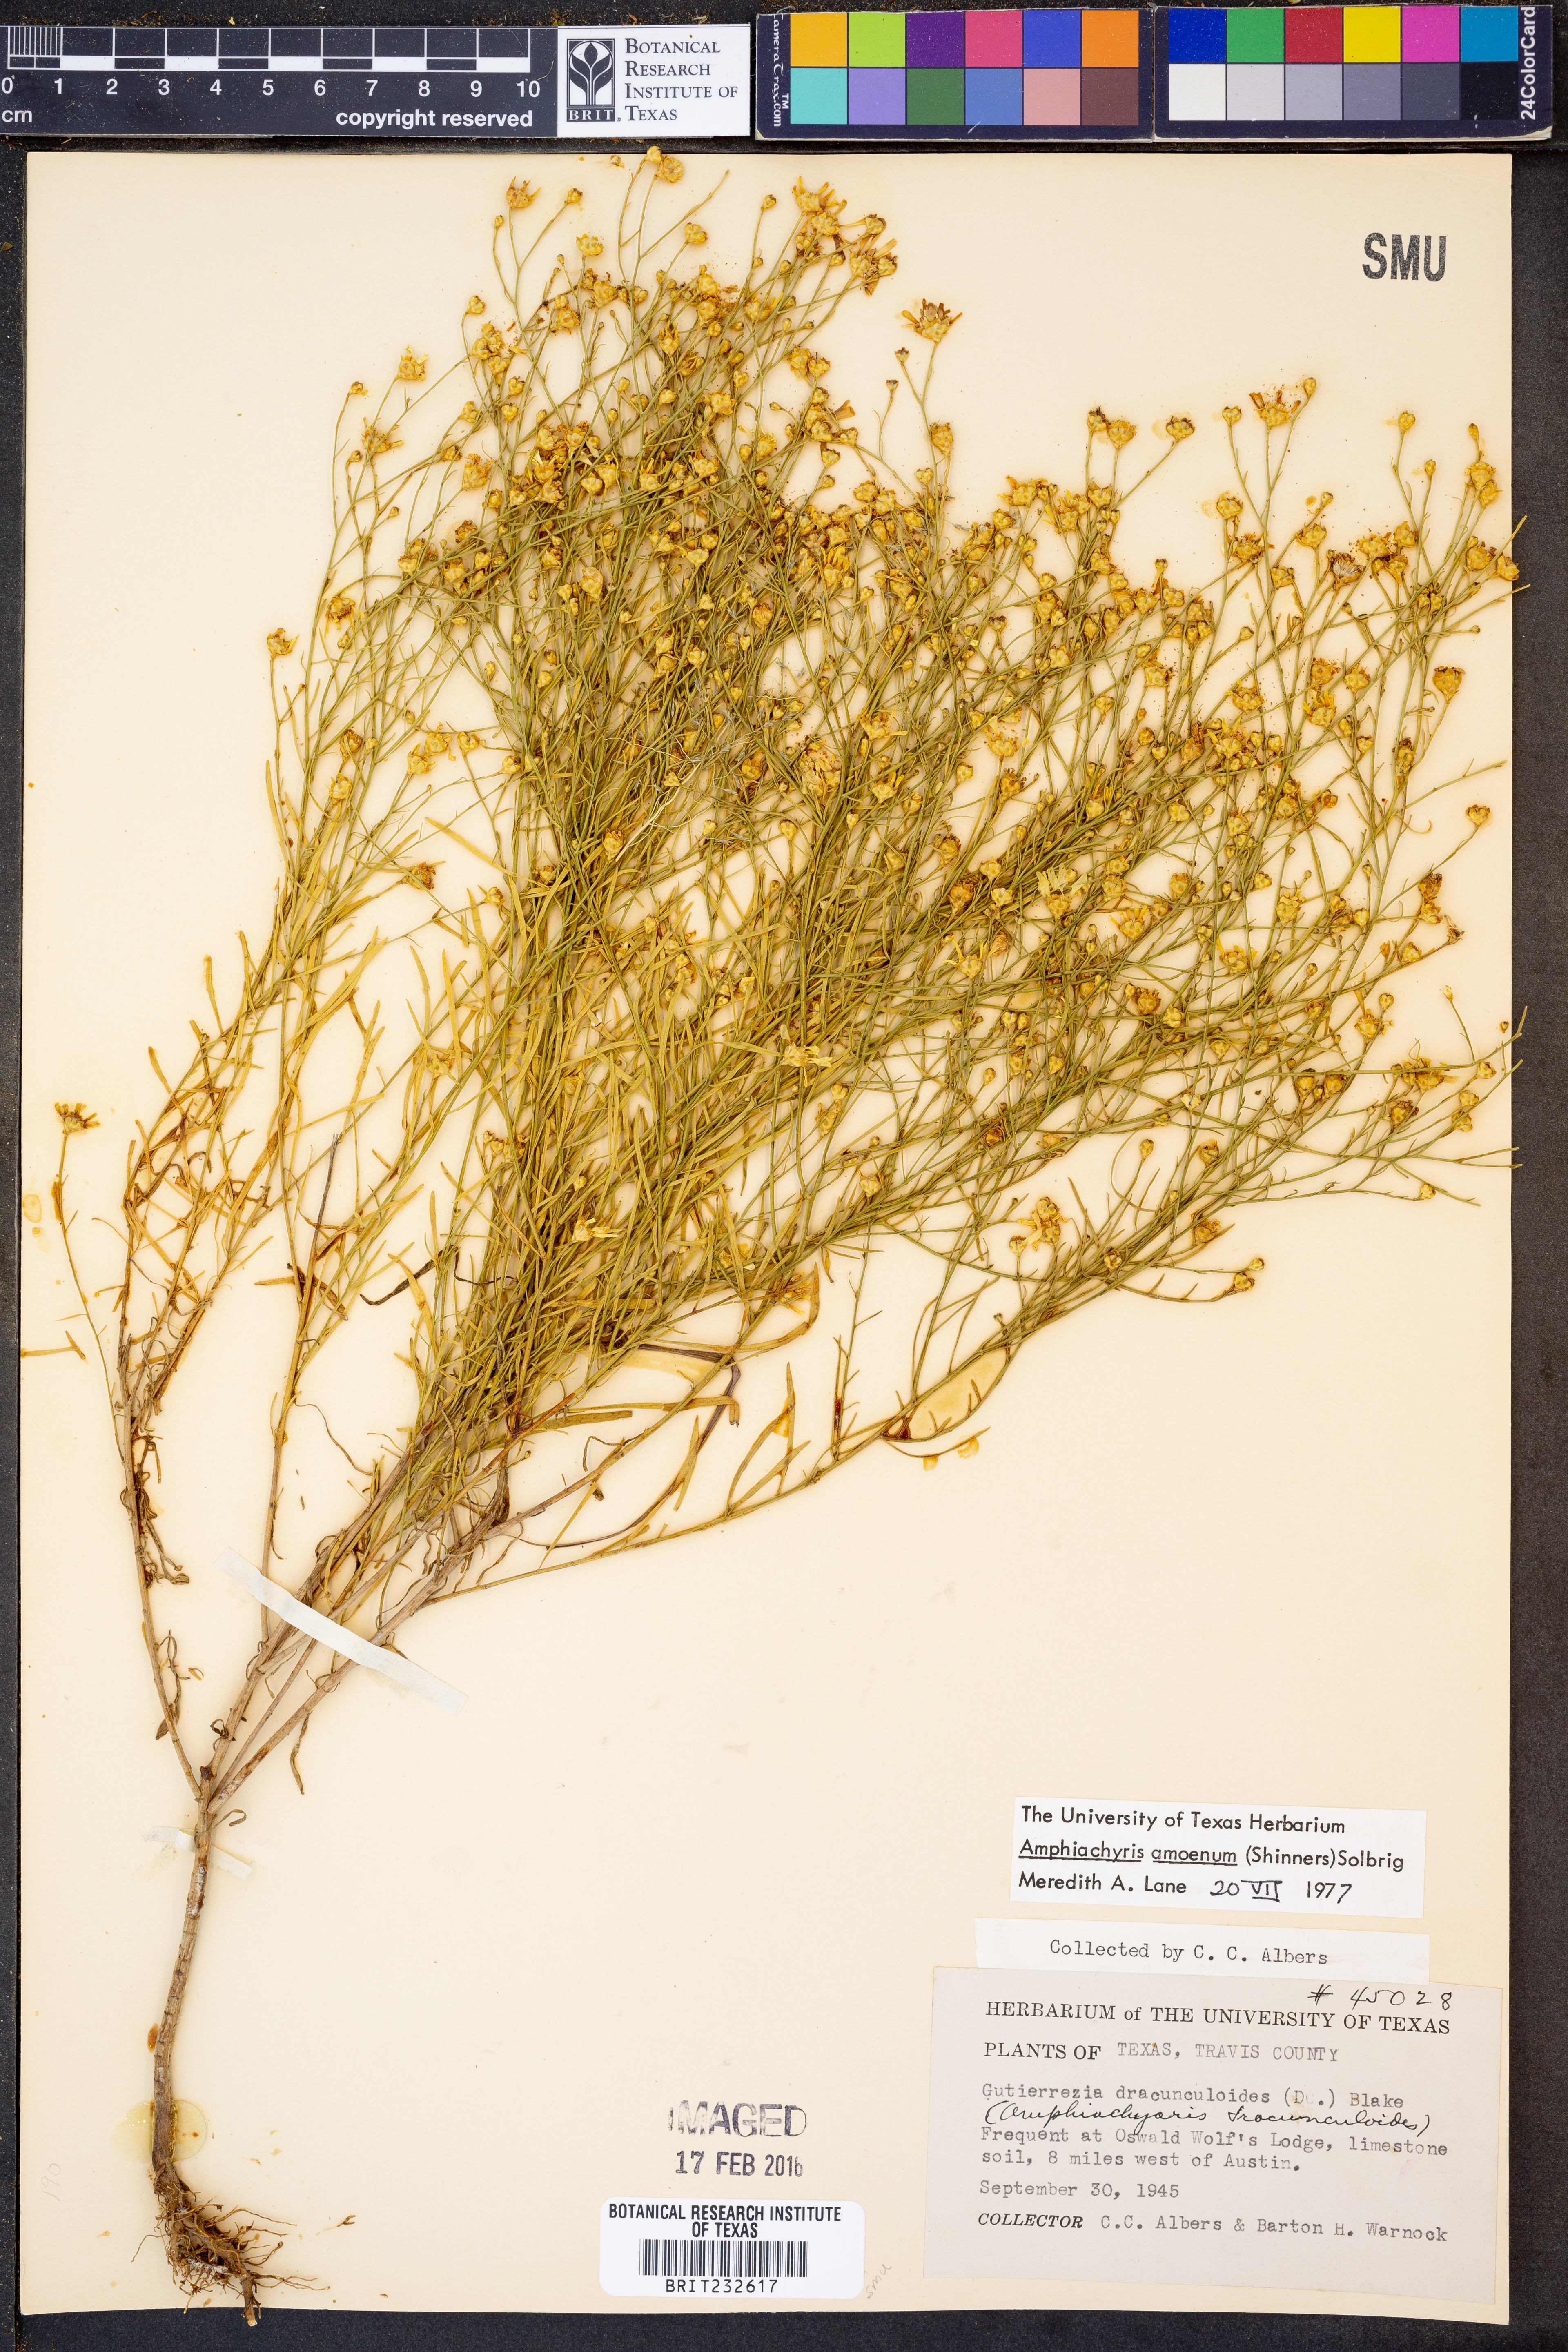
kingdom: Plantae
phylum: Tracheophyta
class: Magnoliopsida
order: Asterales
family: Asteraceae
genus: Amphiachyris
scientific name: Amphiachyris amoenum
